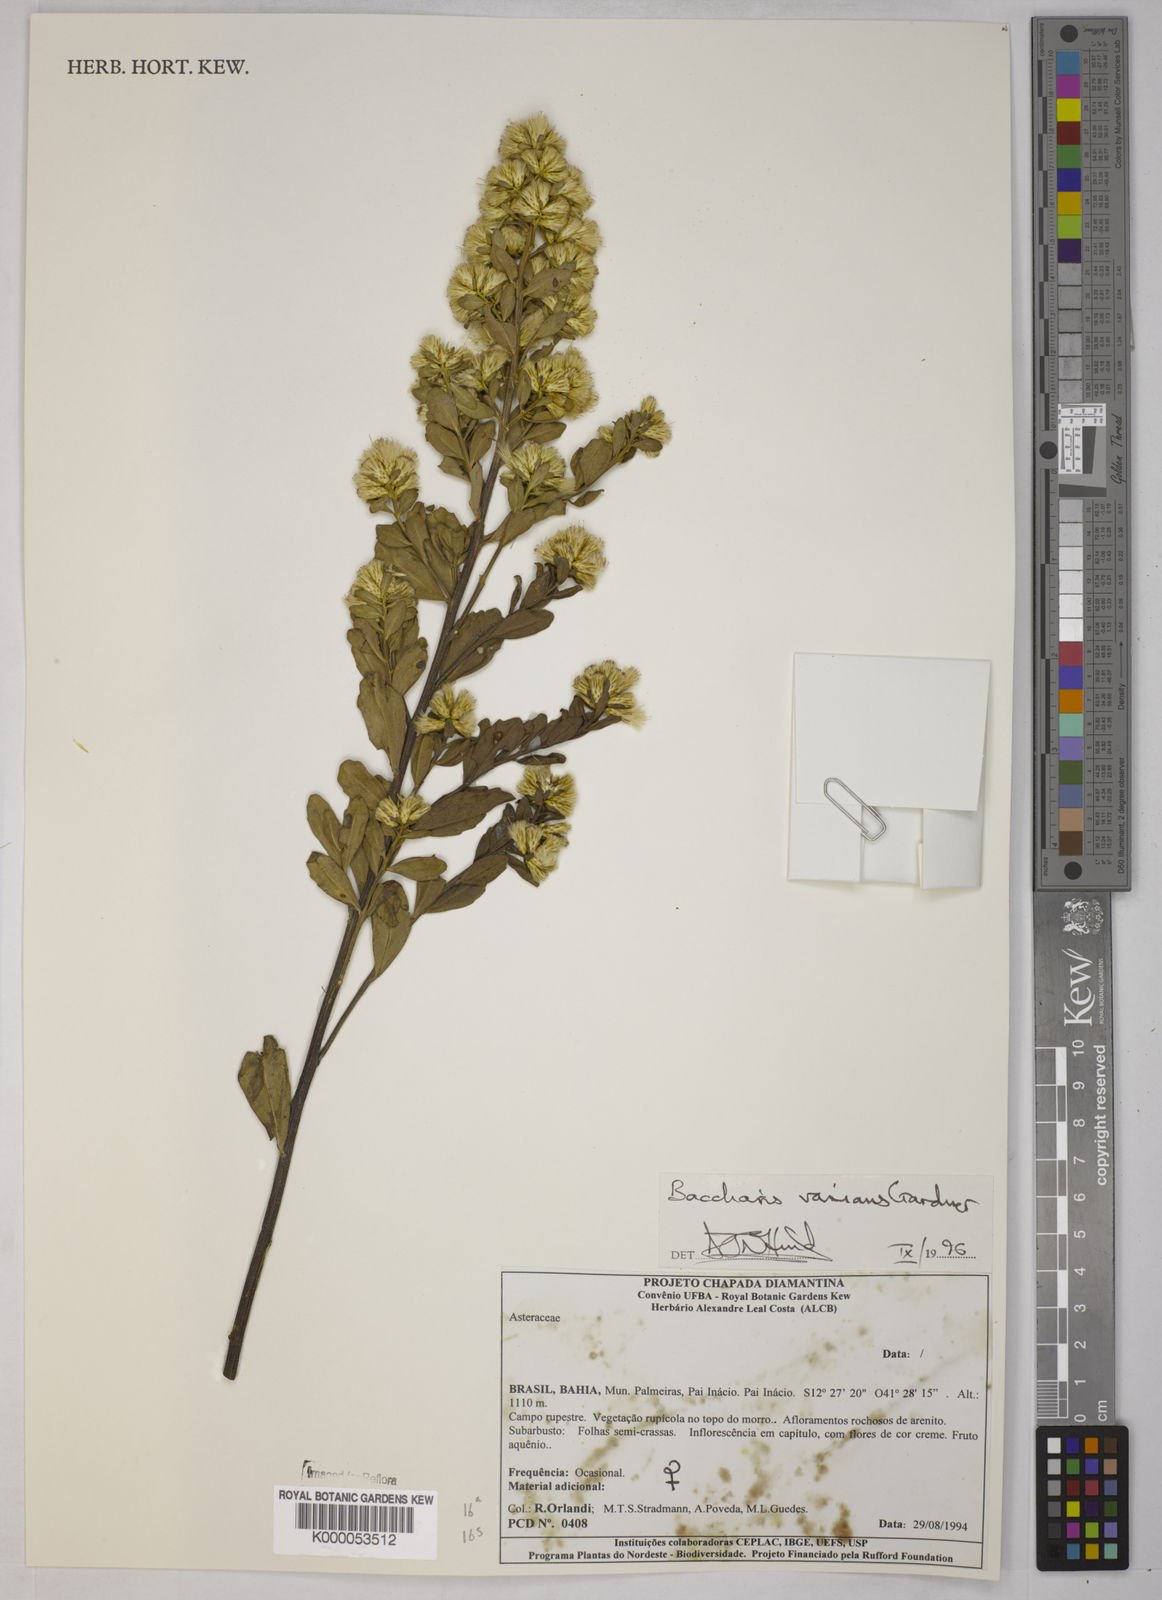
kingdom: Plantae
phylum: Tracheophyta
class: Magnoliopsida
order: Asterales
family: Asteraceae
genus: Baccharis
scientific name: Baccharis varians
